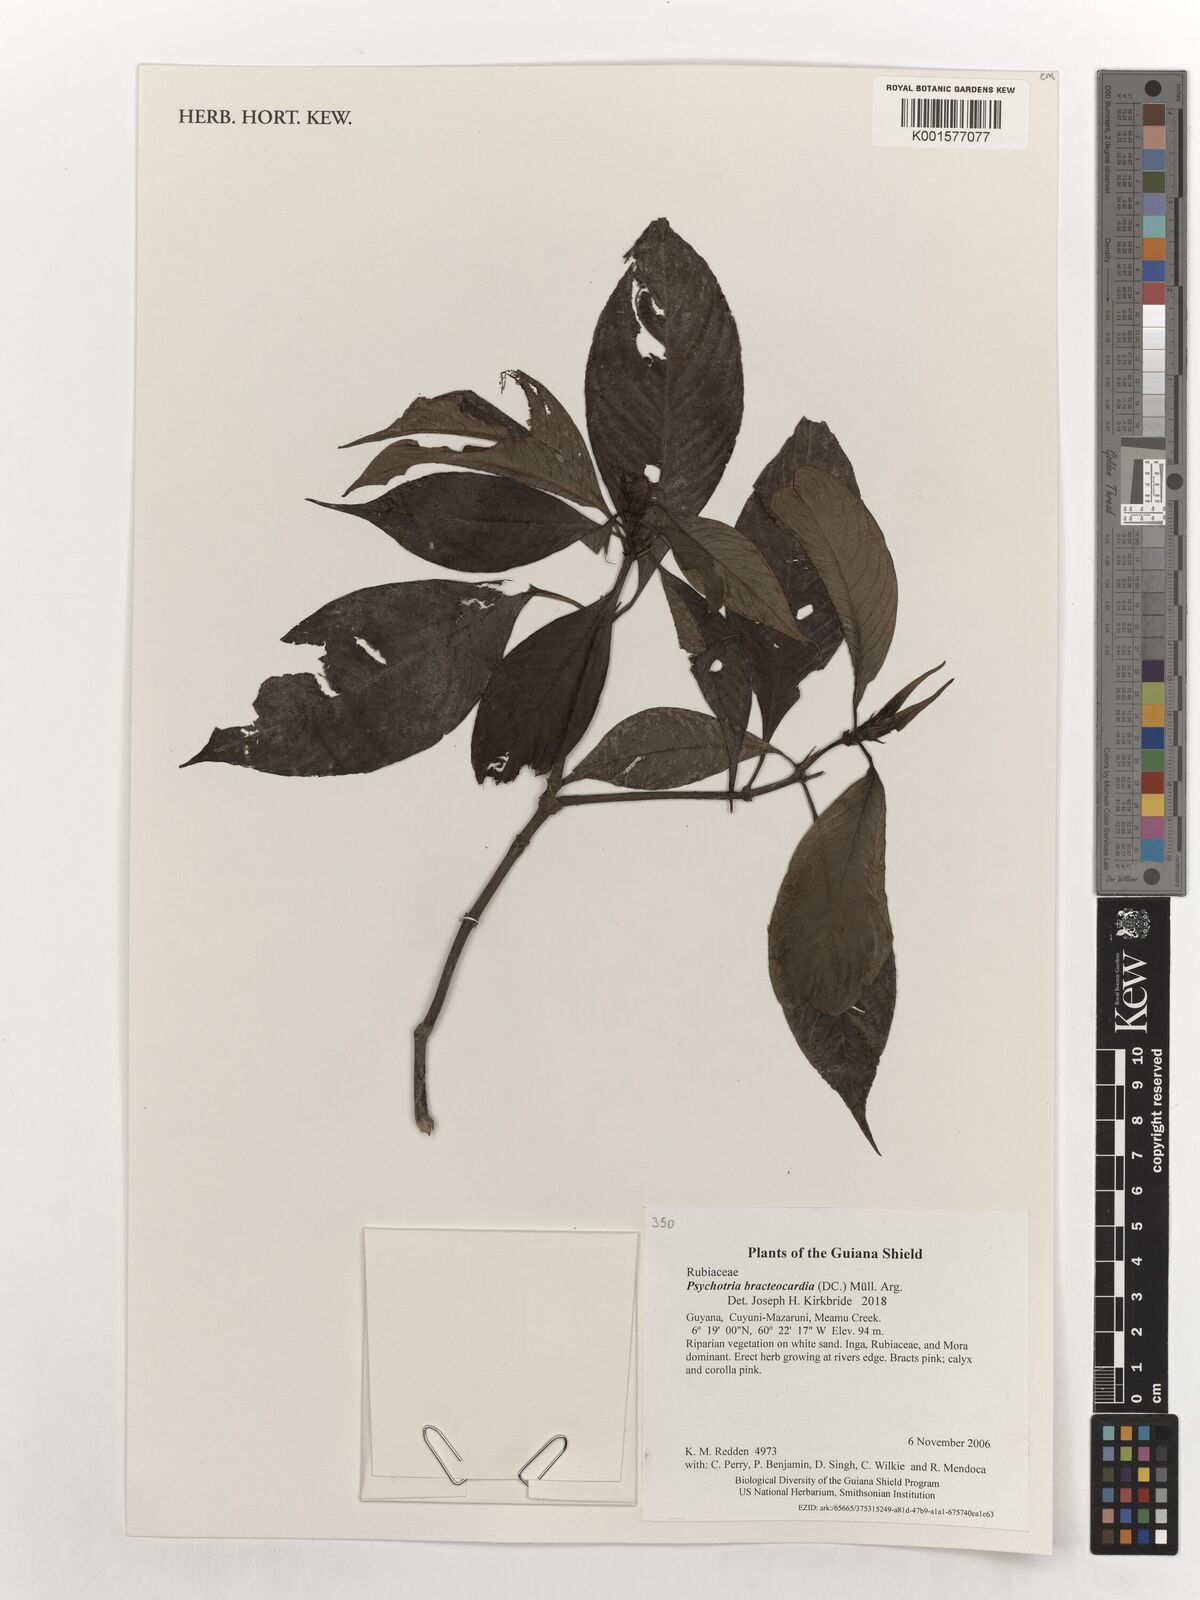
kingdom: Plantae
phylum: Tracheophyta
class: Magnoliopsida
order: Gentianales
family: Rubiaceae
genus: Palicourea
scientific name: Palicourea bracteocardia
